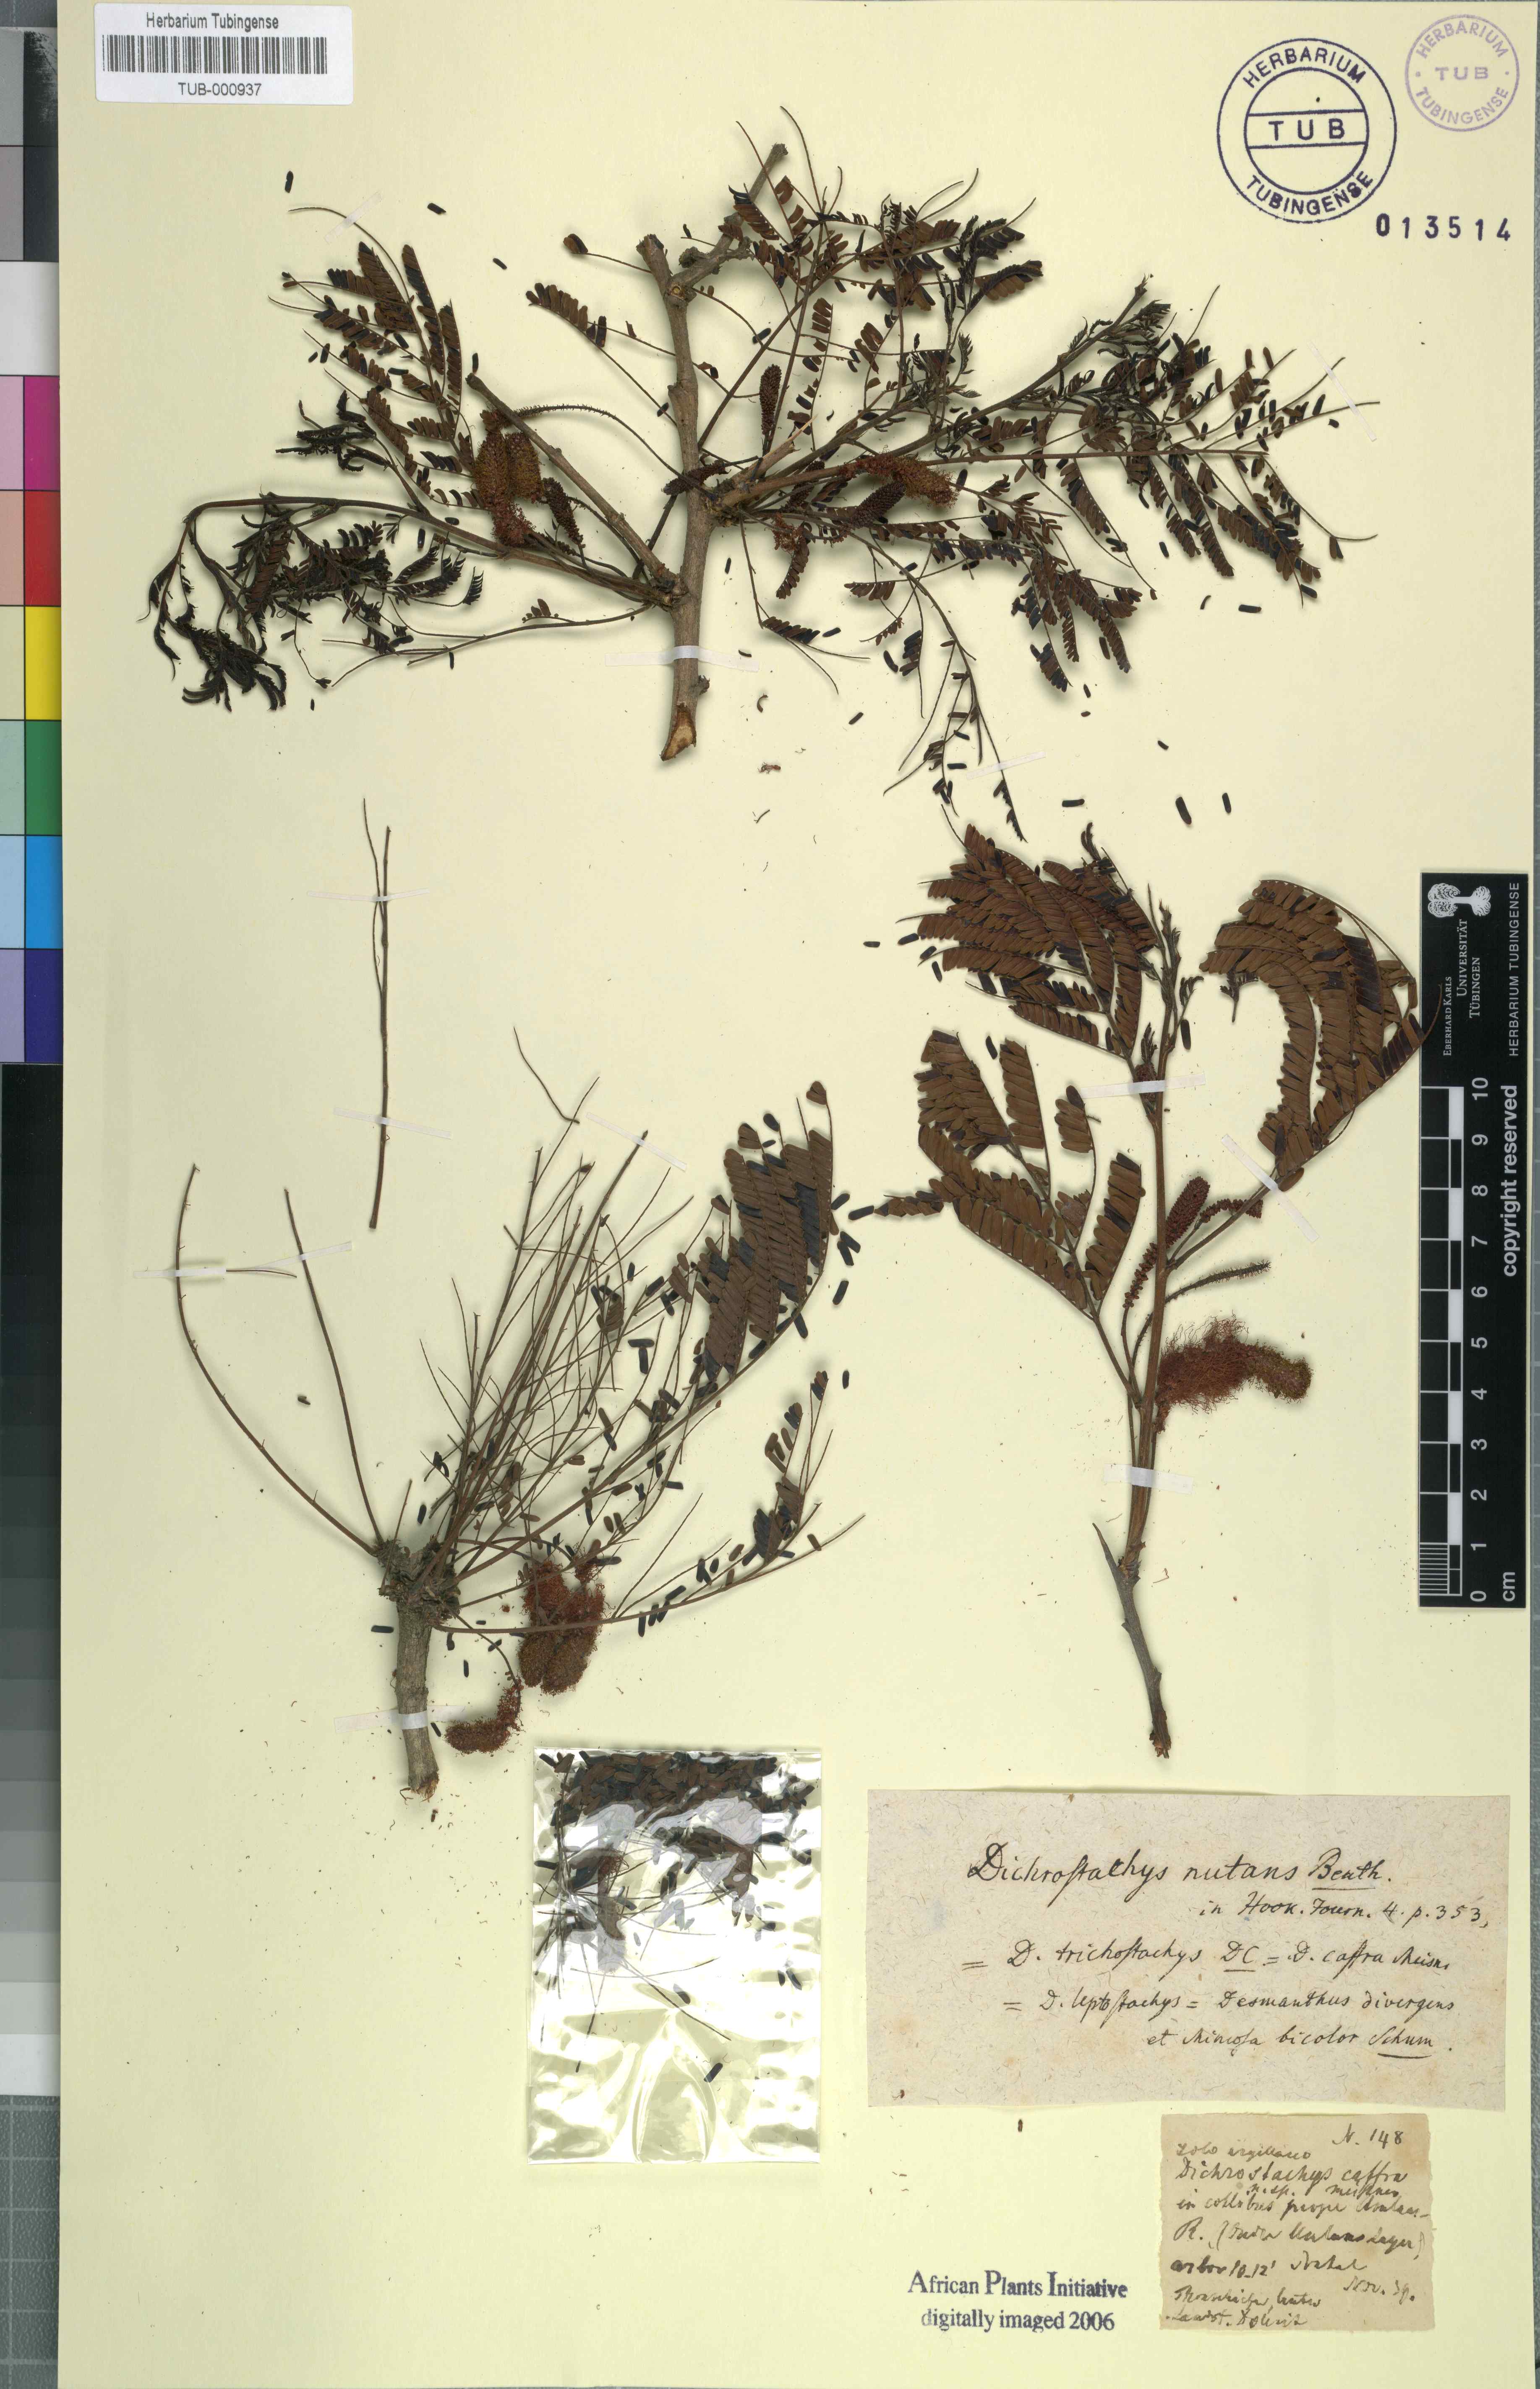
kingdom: Plantae
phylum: Tracheophyta
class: Magnoliopsida
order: Fabales
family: Fabaceae
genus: Dichrostachys
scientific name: Dichrostachys cinerea
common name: Sicklebush
